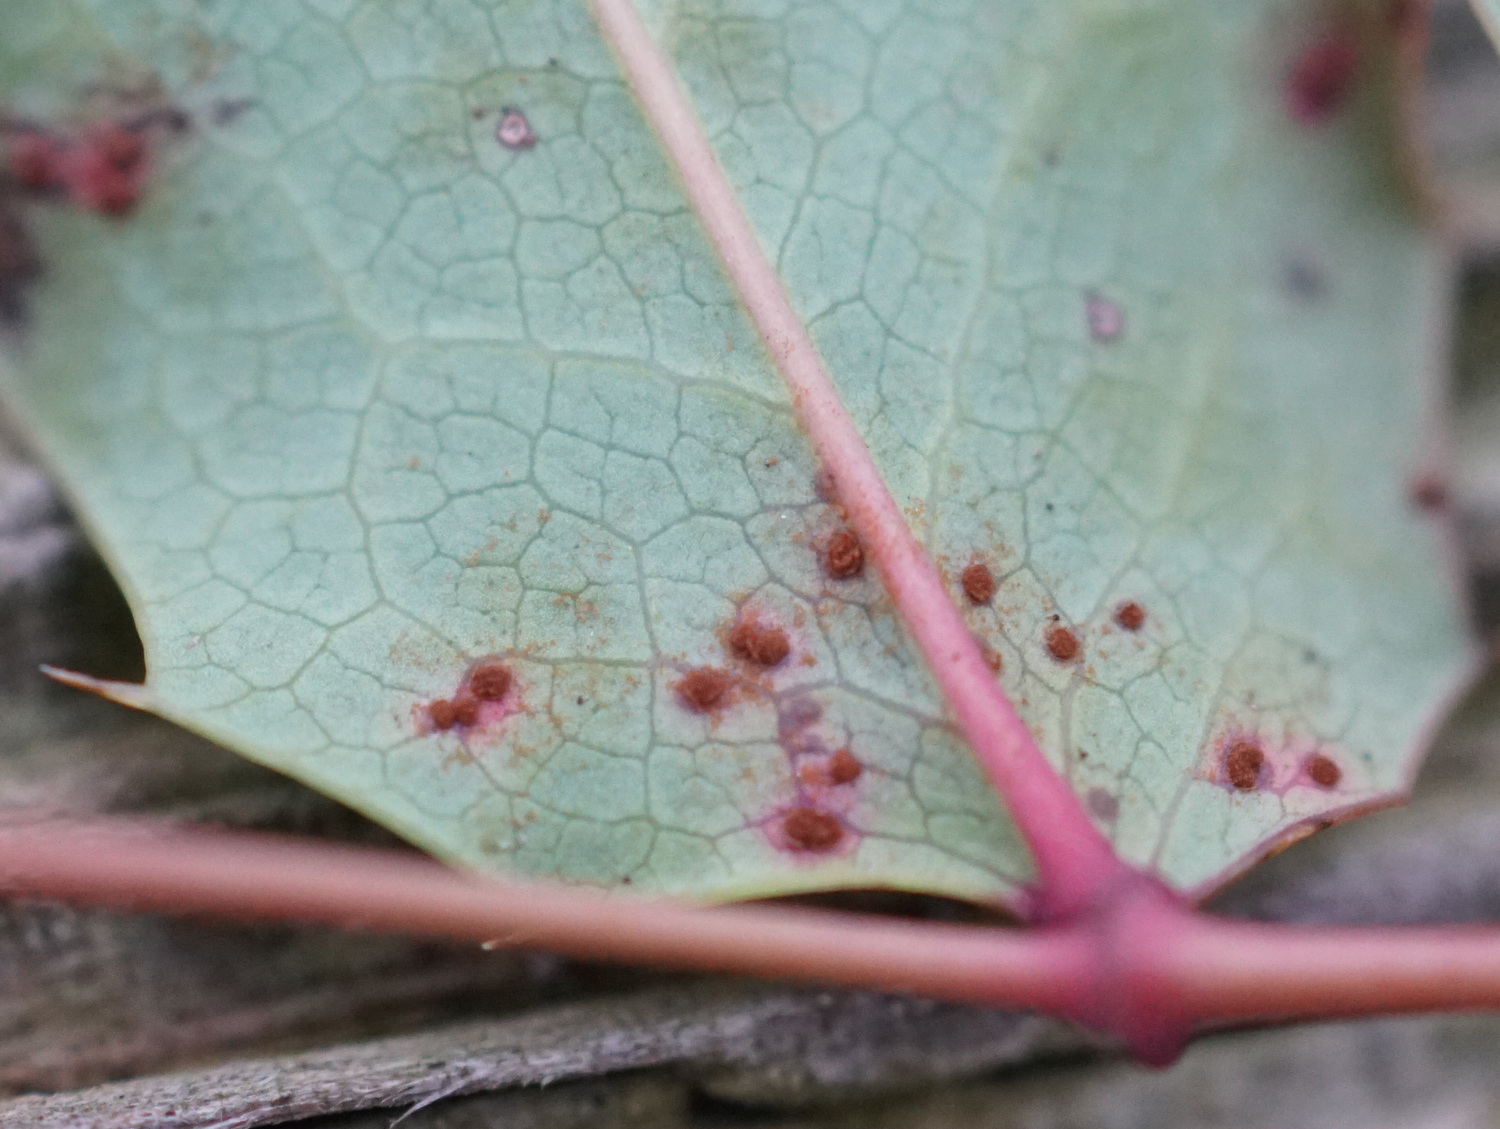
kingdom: Fungi
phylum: Basidiomycota
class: Pucciniomycetes
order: Pucciniales
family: Pucciniaceae
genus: Cumminsiella
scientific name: Cumminsiella mirabilissima
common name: mahonierust
